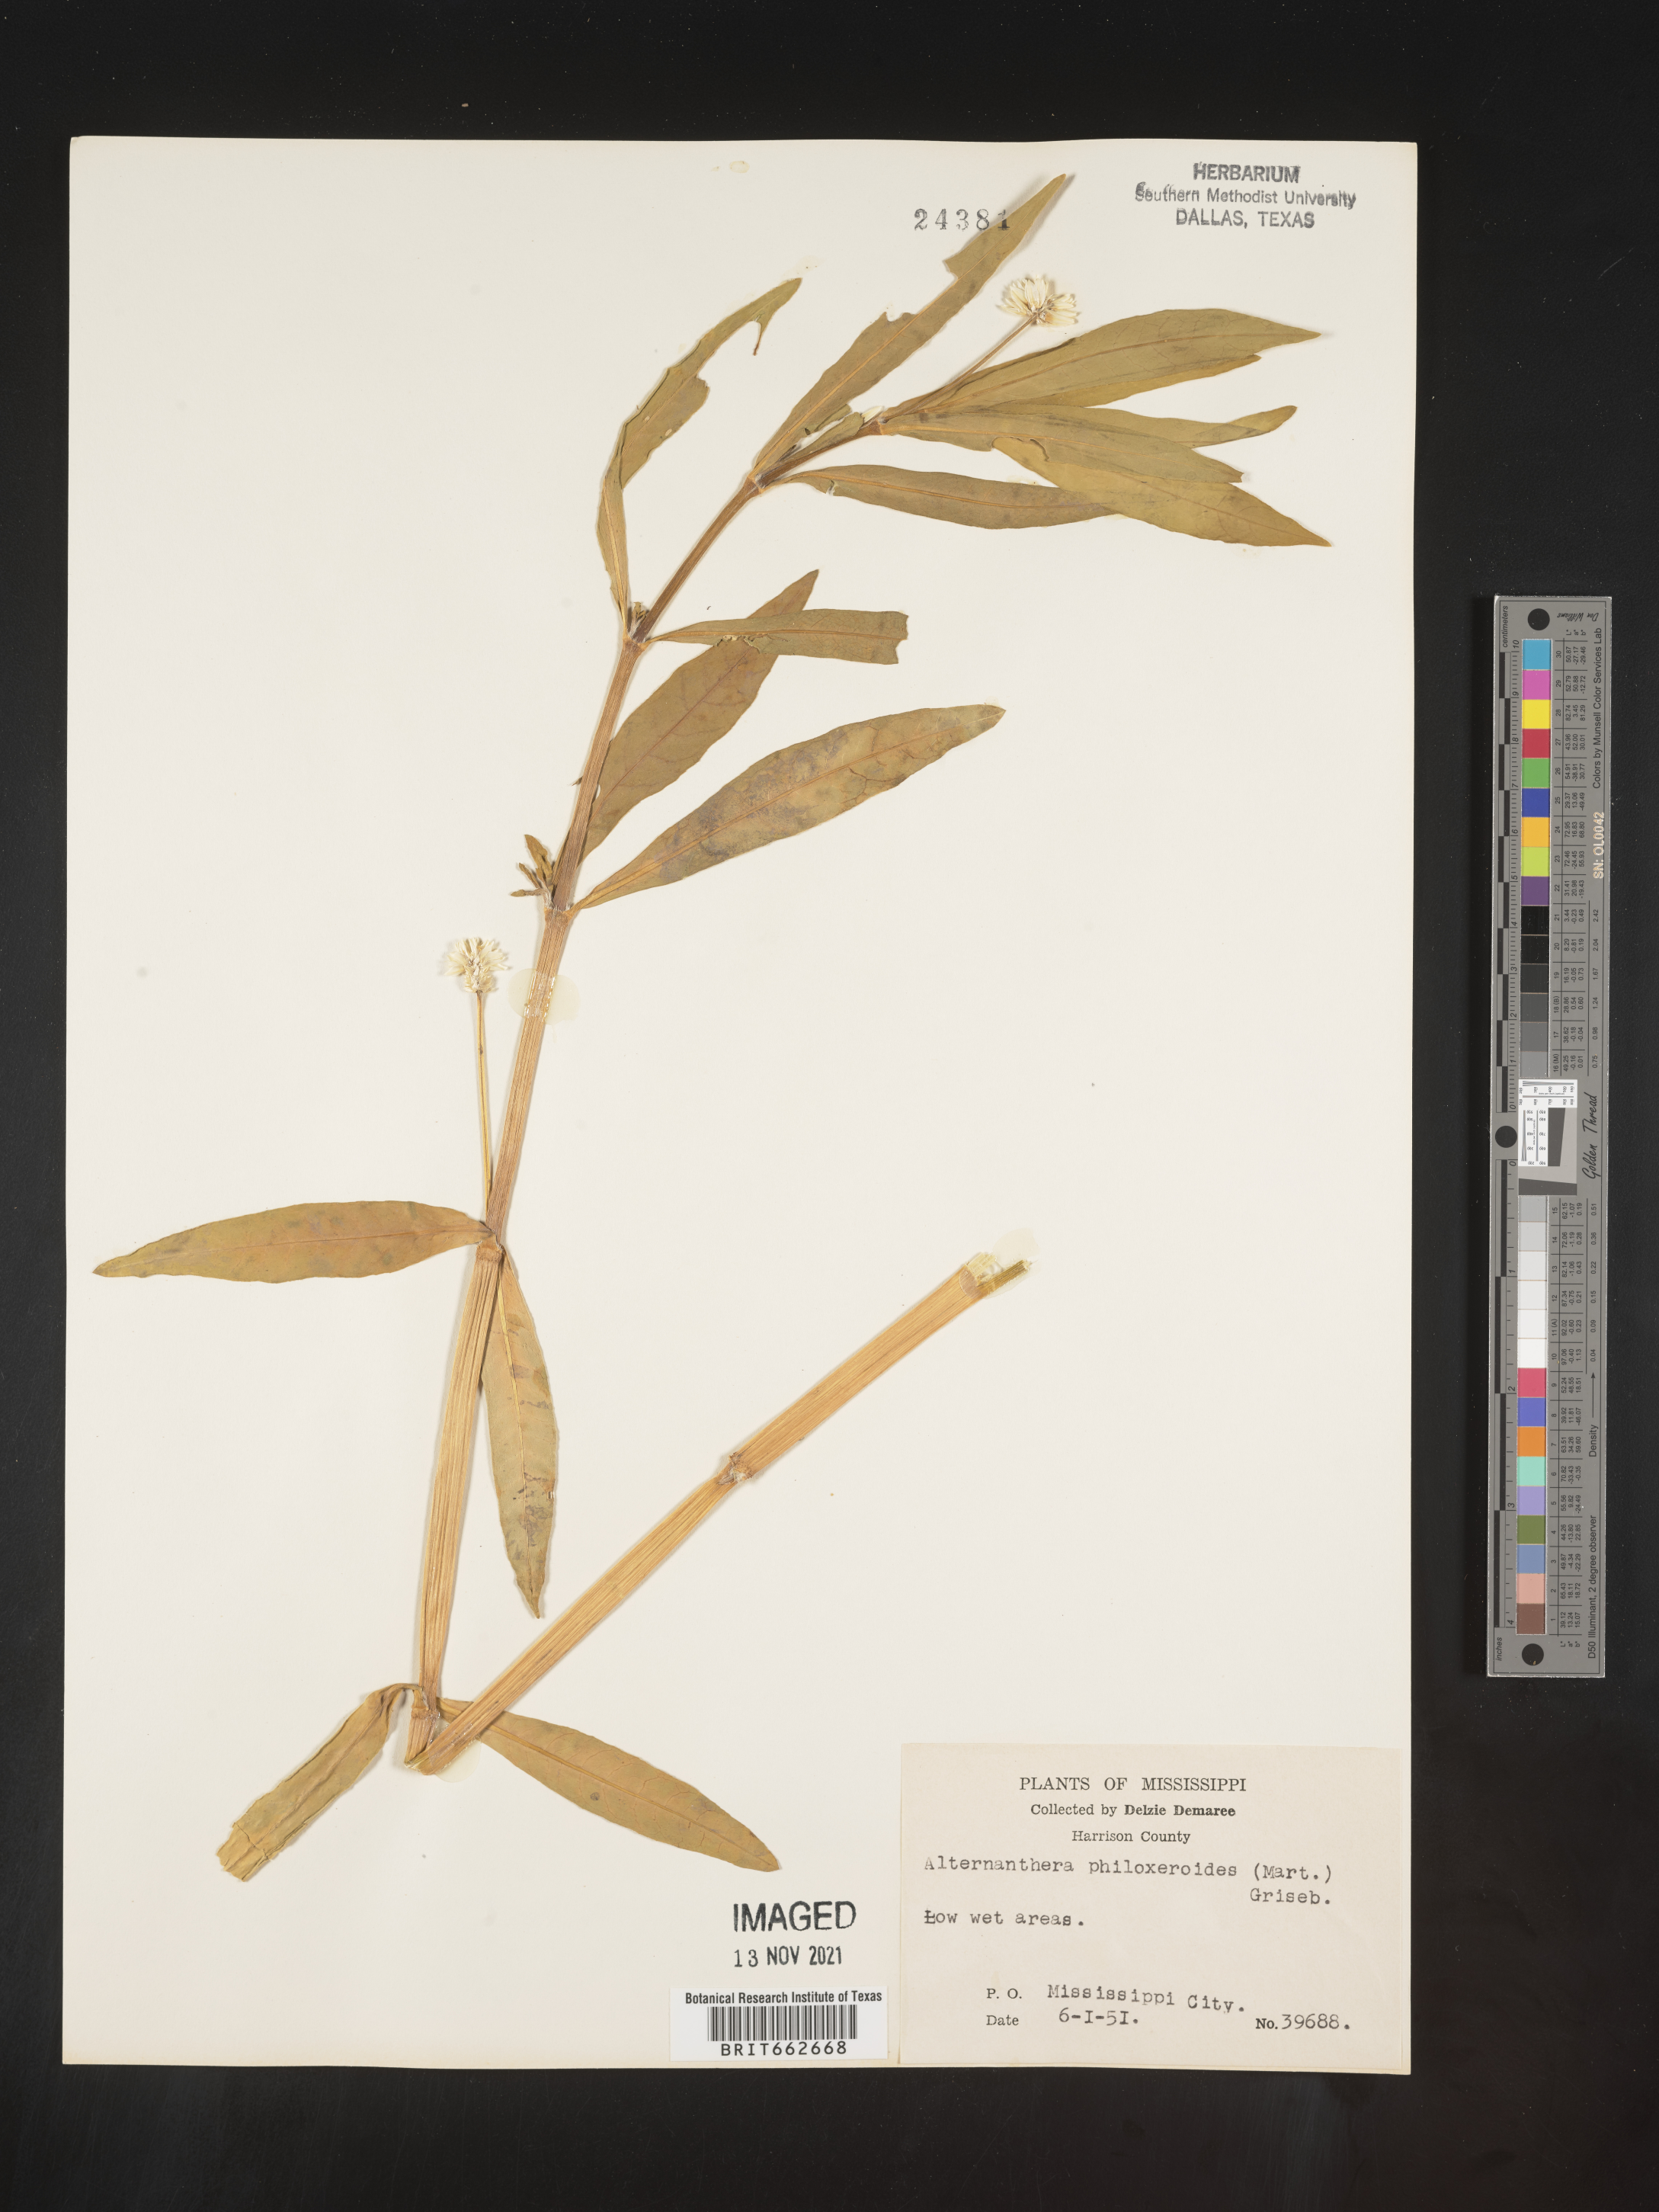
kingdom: Plantae
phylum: Tracheophyta
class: Magnoliopsida
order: Caryophyllales
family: Amaranthaceae
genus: Alternanthera
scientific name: Alternanthera philoxeroides
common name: Alligatorweed
